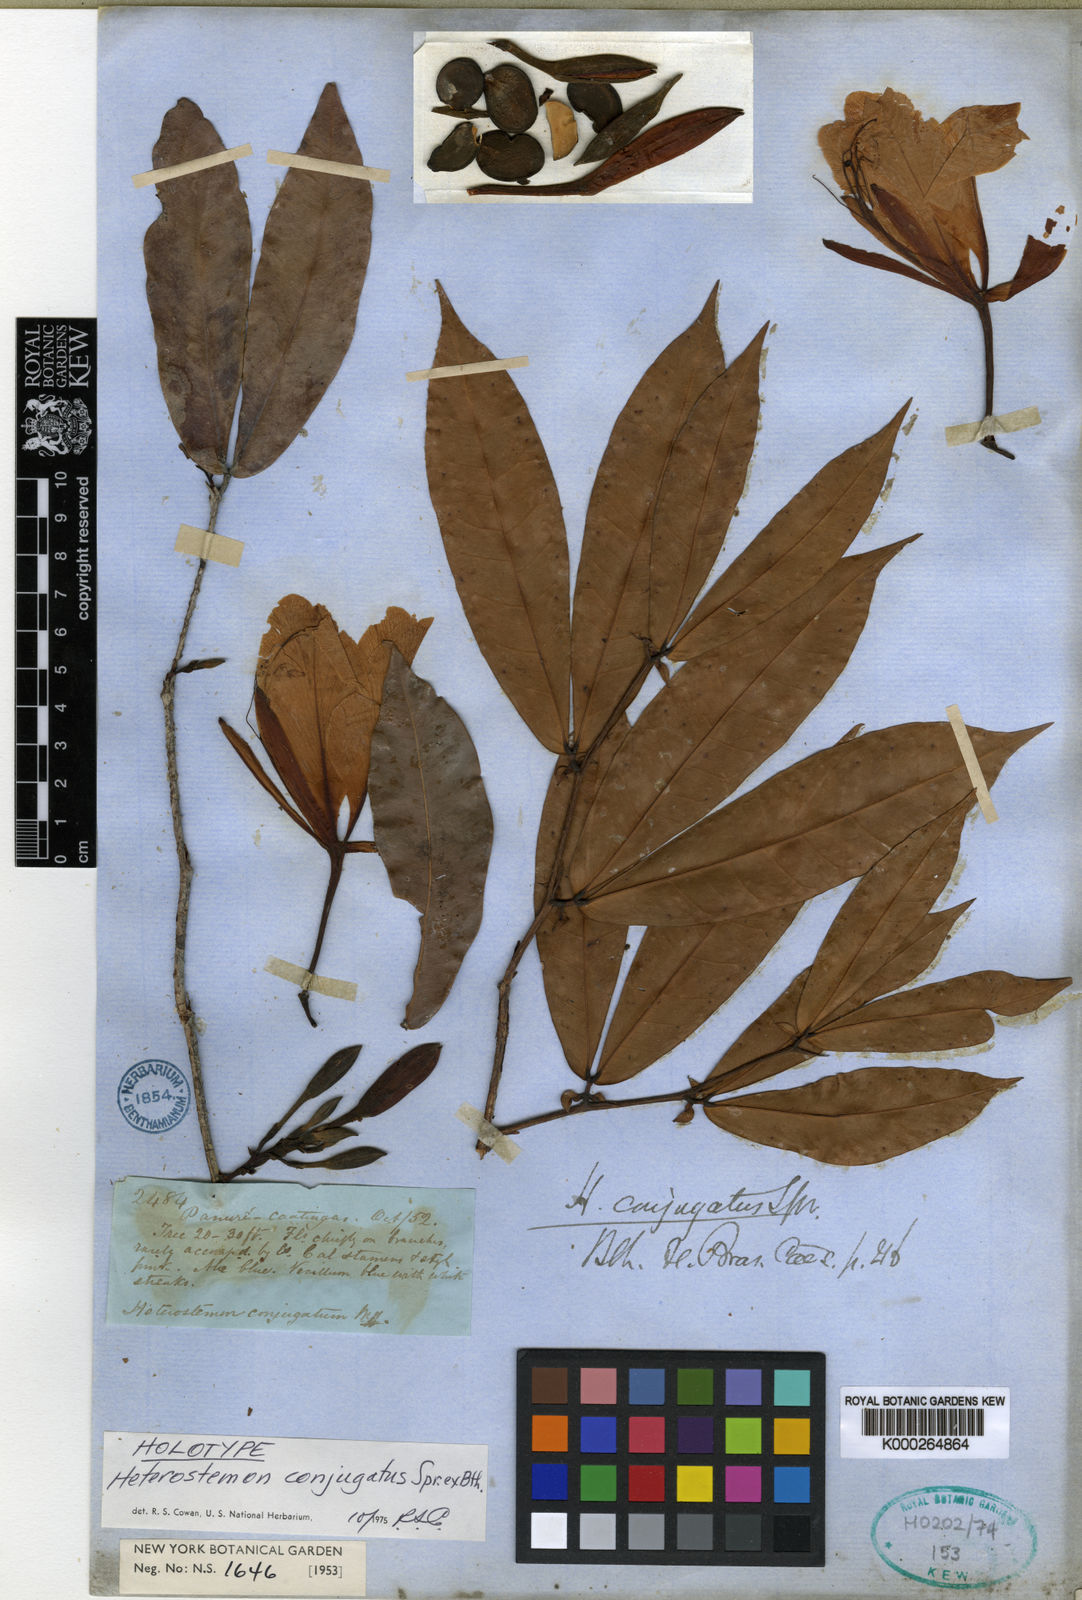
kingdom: Plantae
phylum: Tracheophyta
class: Magnoliopsida
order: Fabales
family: Fabaceae
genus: Heterostemon
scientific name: Heterostemon conjugatus
